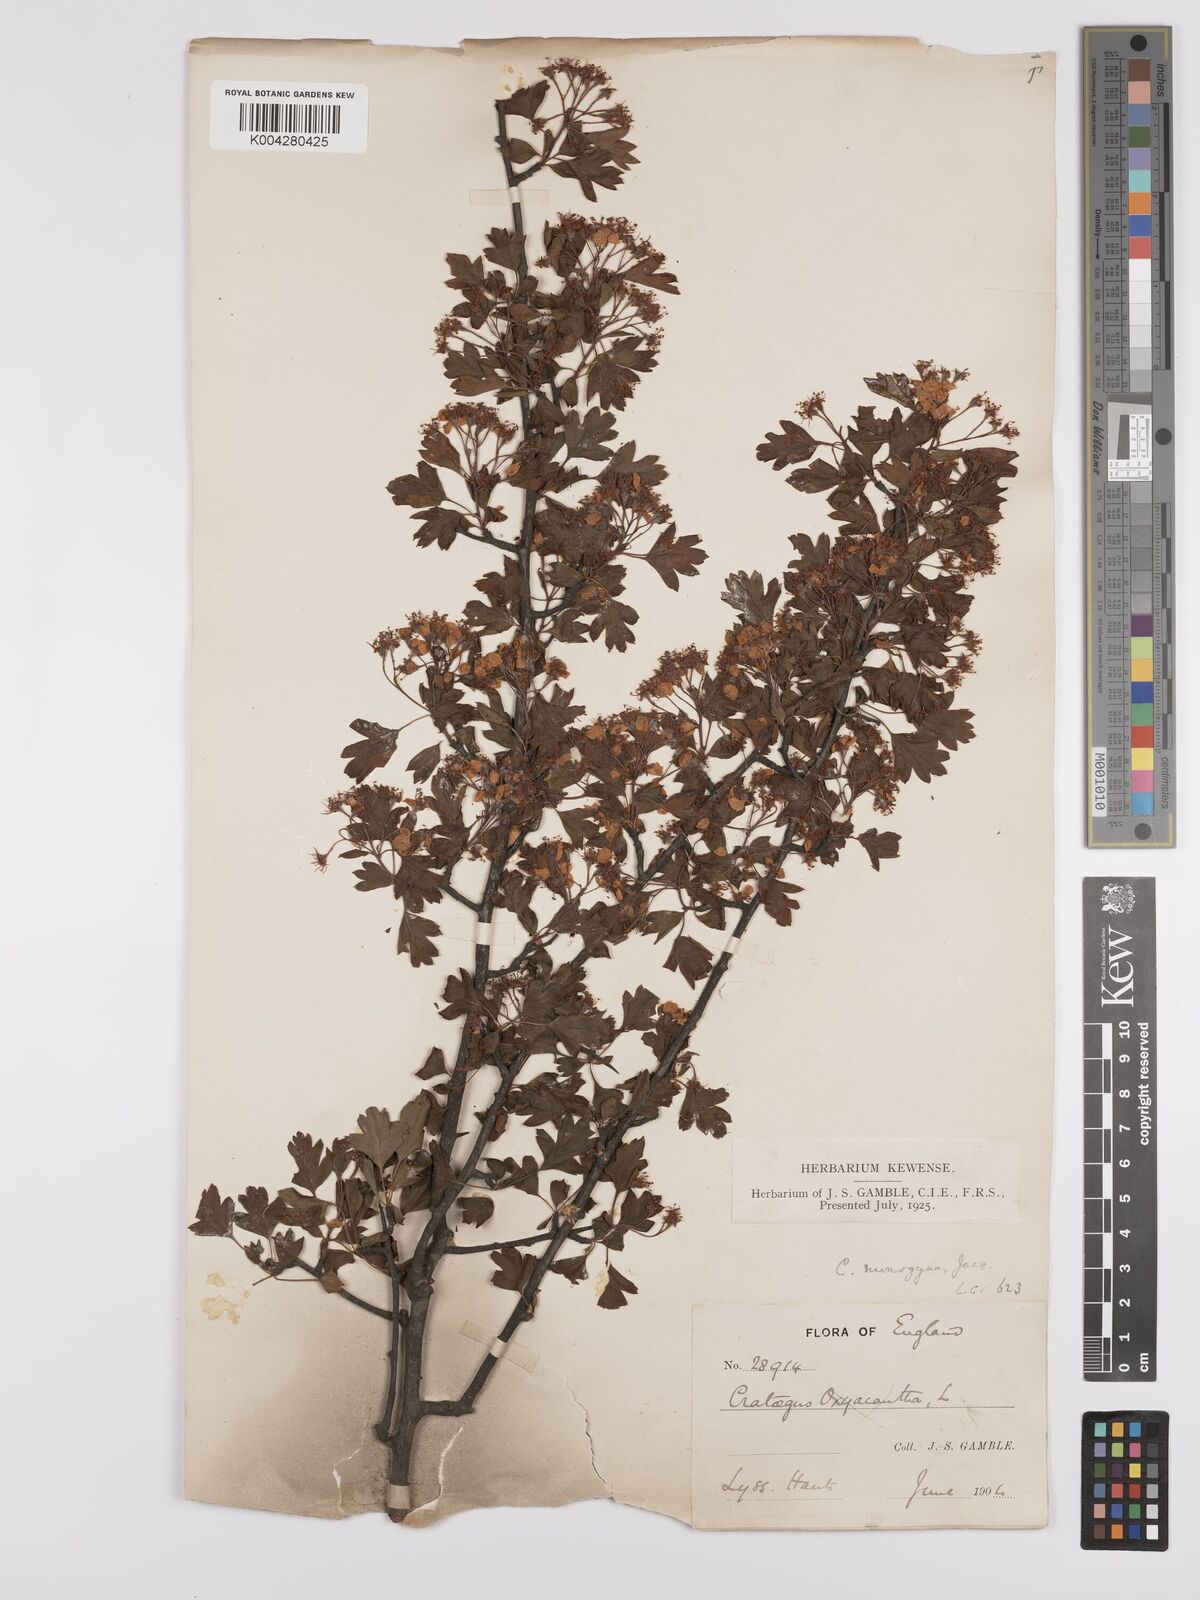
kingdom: Plantae
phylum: Tracheophyta
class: Magnoliopsida
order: Rosales
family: Rosaceae
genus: Crataegus
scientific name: Crataegus monogyna
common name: Hawthorn
